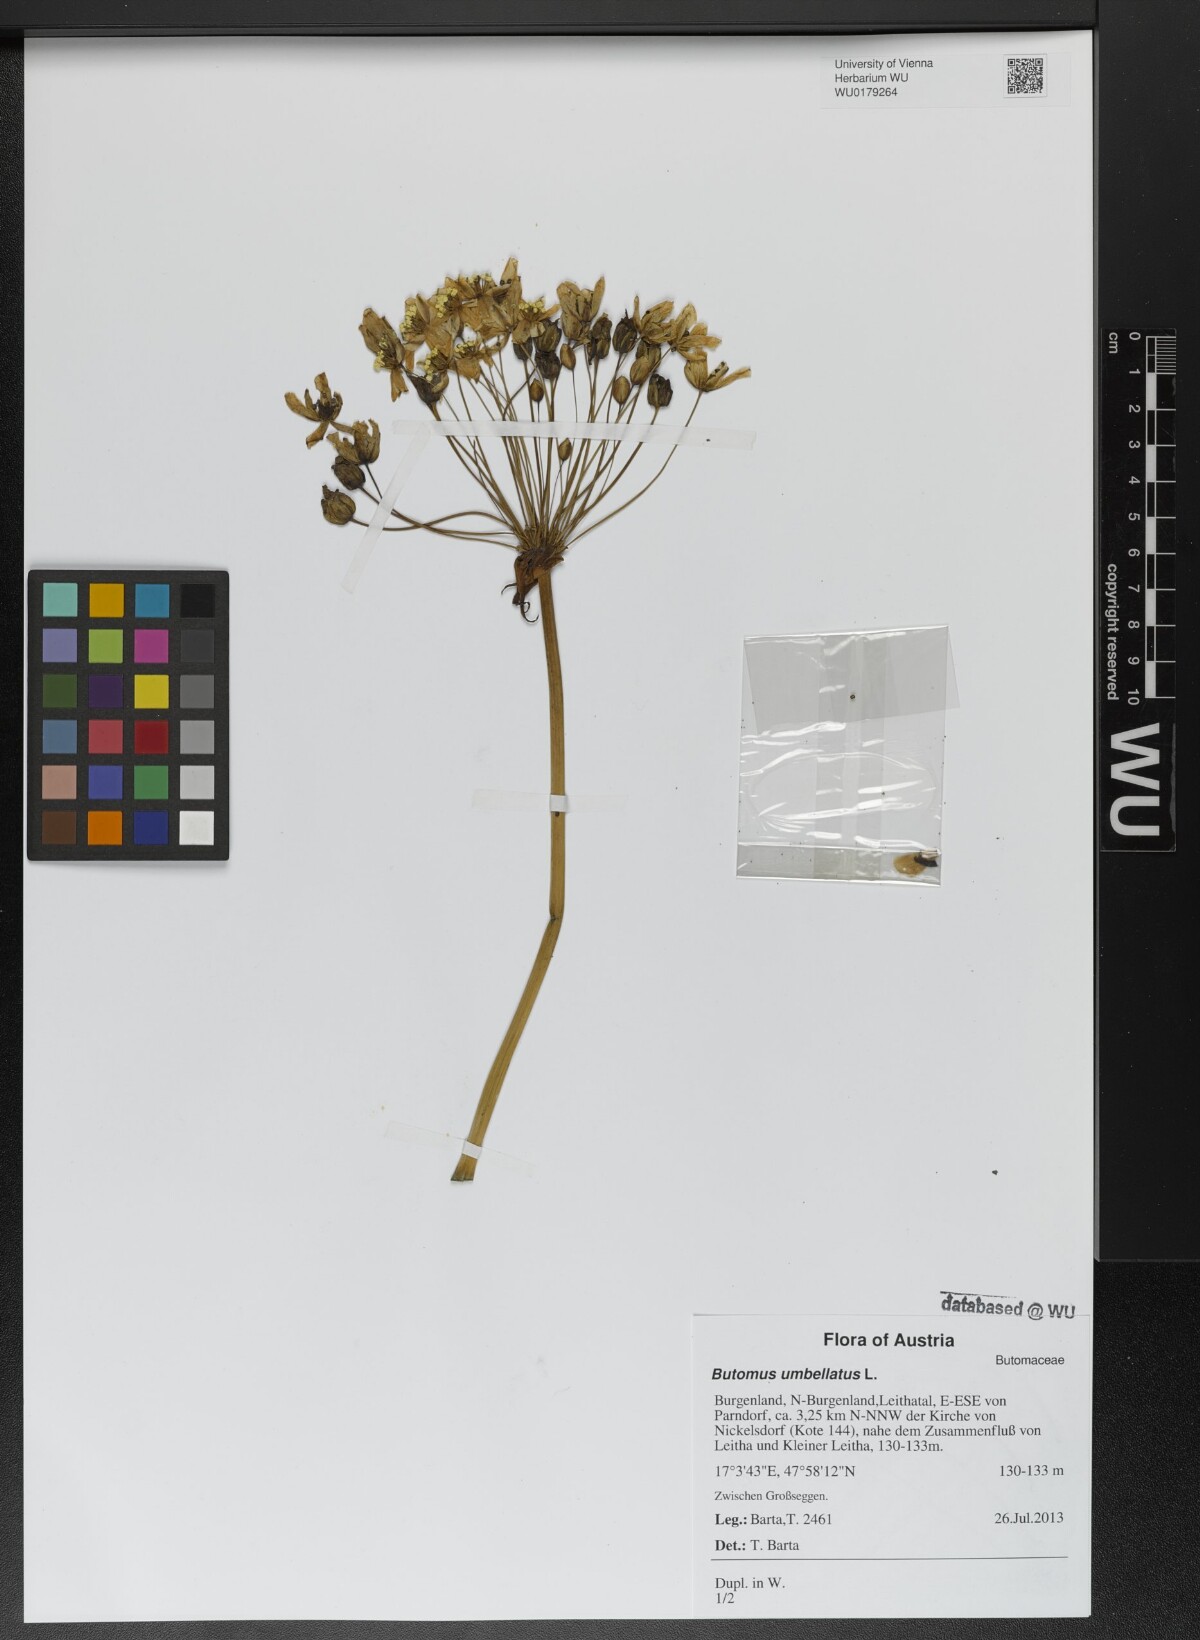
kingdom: Plantae
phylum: Tracheophyta
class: Liliopsida
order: Alismatales
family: Butomaceae
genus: Butomus
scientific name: Butomus umbellatus
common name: Flowering-rush
